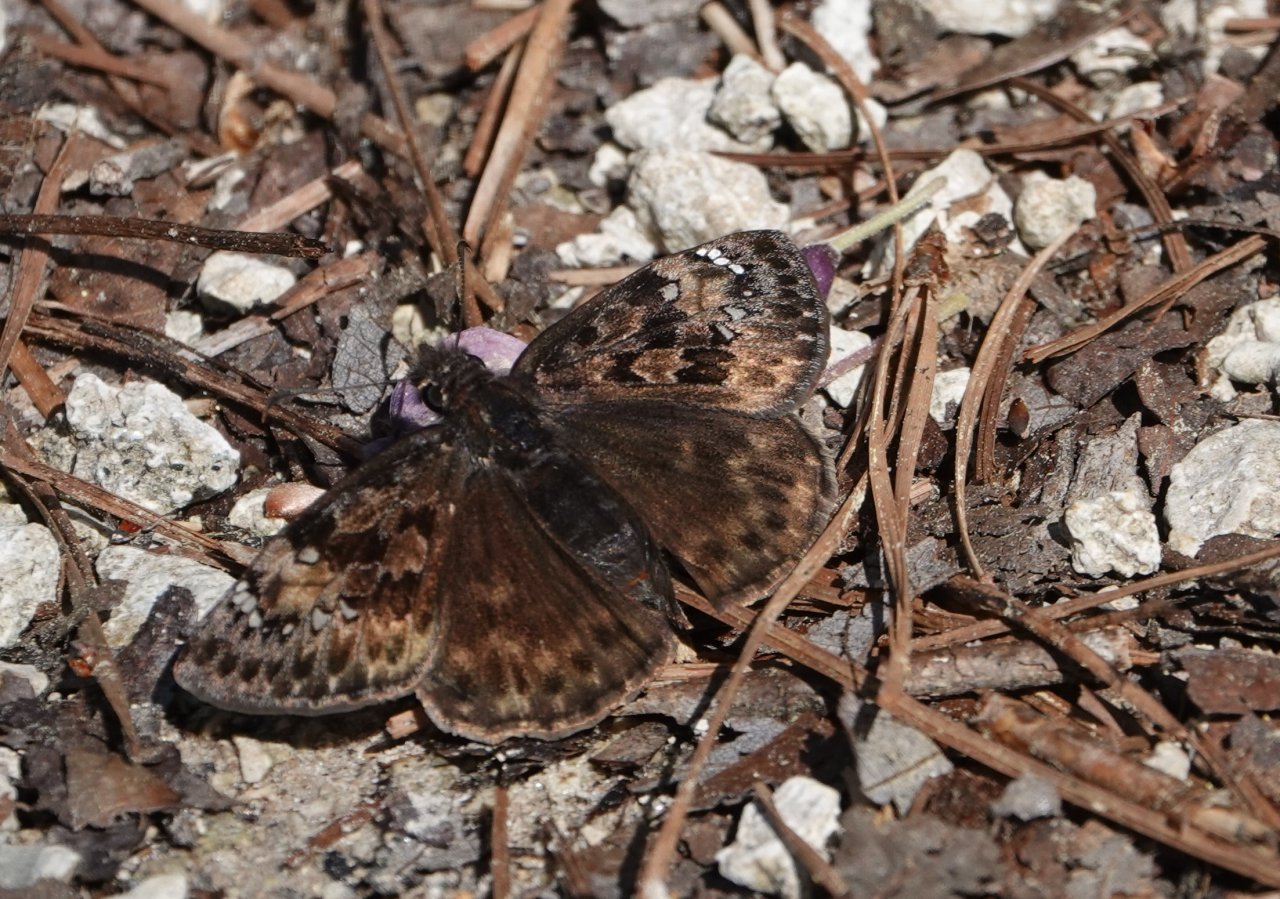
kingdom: Animalia
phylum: Arthropoda
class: Insecta
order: Lepidoptera
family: Hesperiidae
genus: Gesta
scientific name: Gesta
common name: Juvenal's Duskywing
